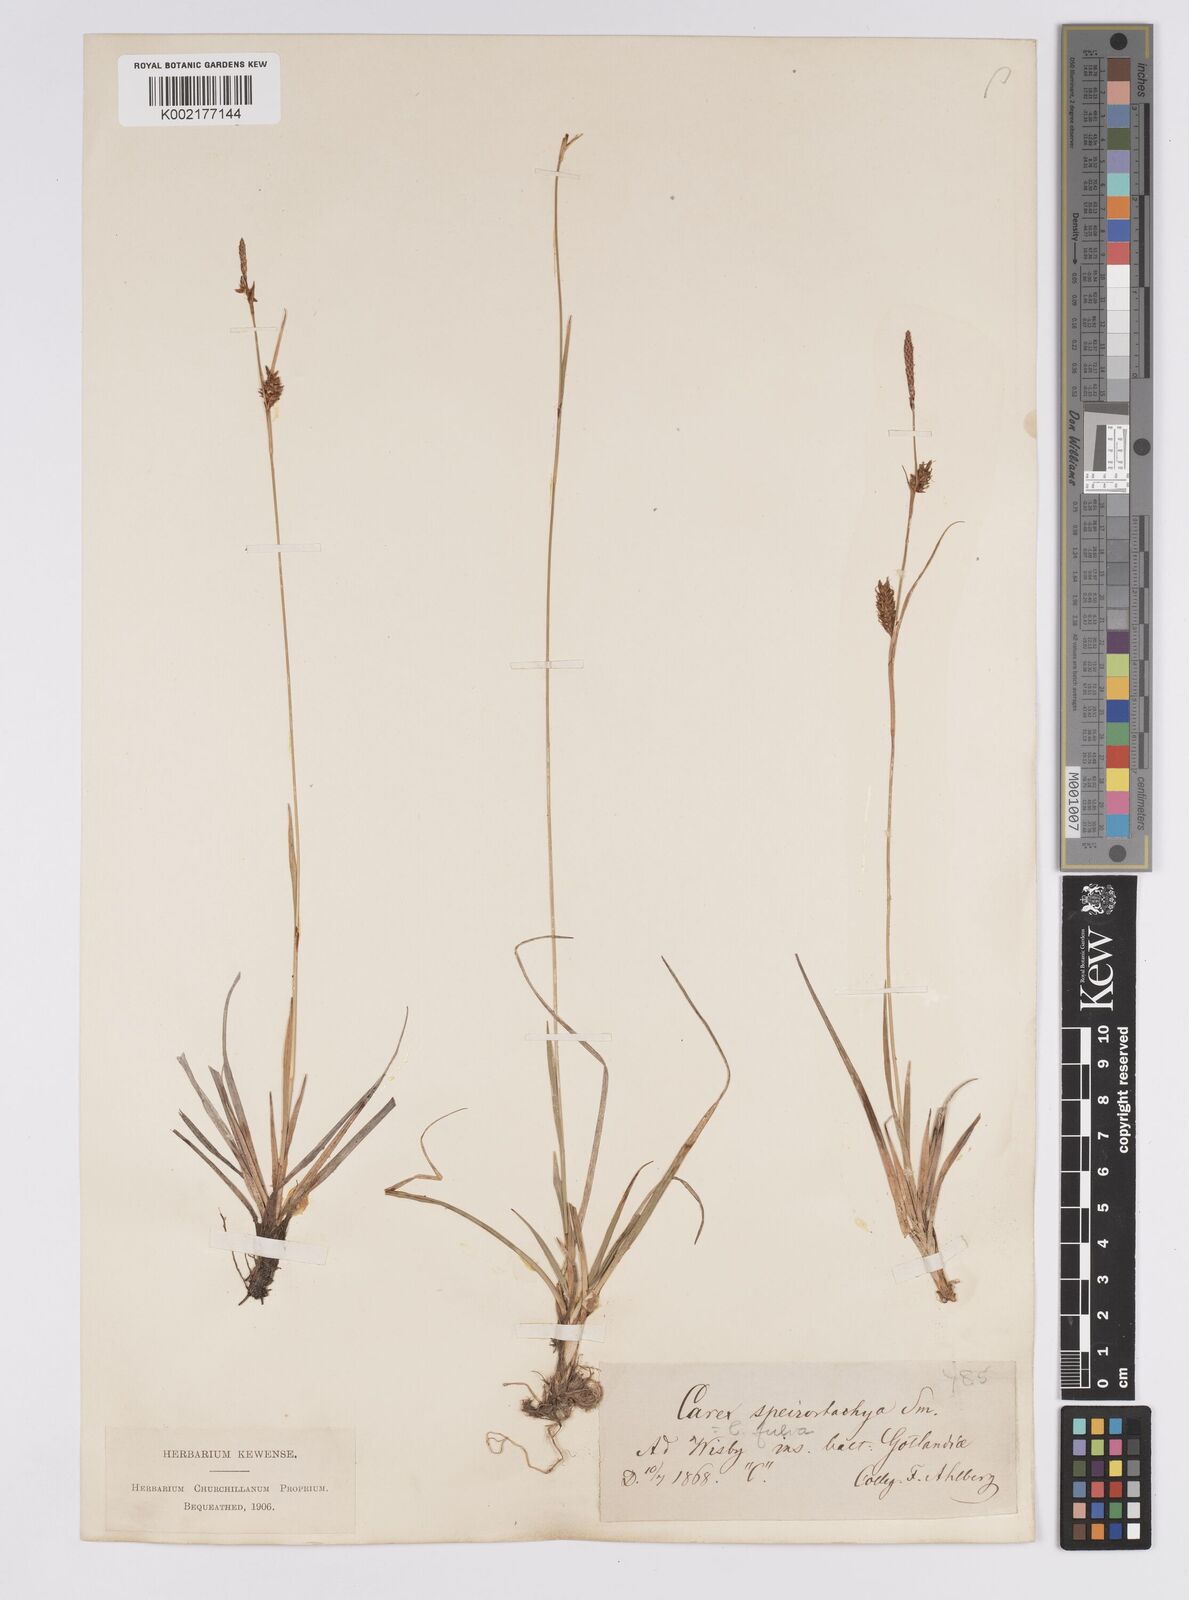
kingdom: Plantae
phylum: Tracheophyta
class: Liliopsida
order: Poales
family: Cyperaceae
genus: Carex
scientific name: Carex hostiana
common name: Tawny sedge
